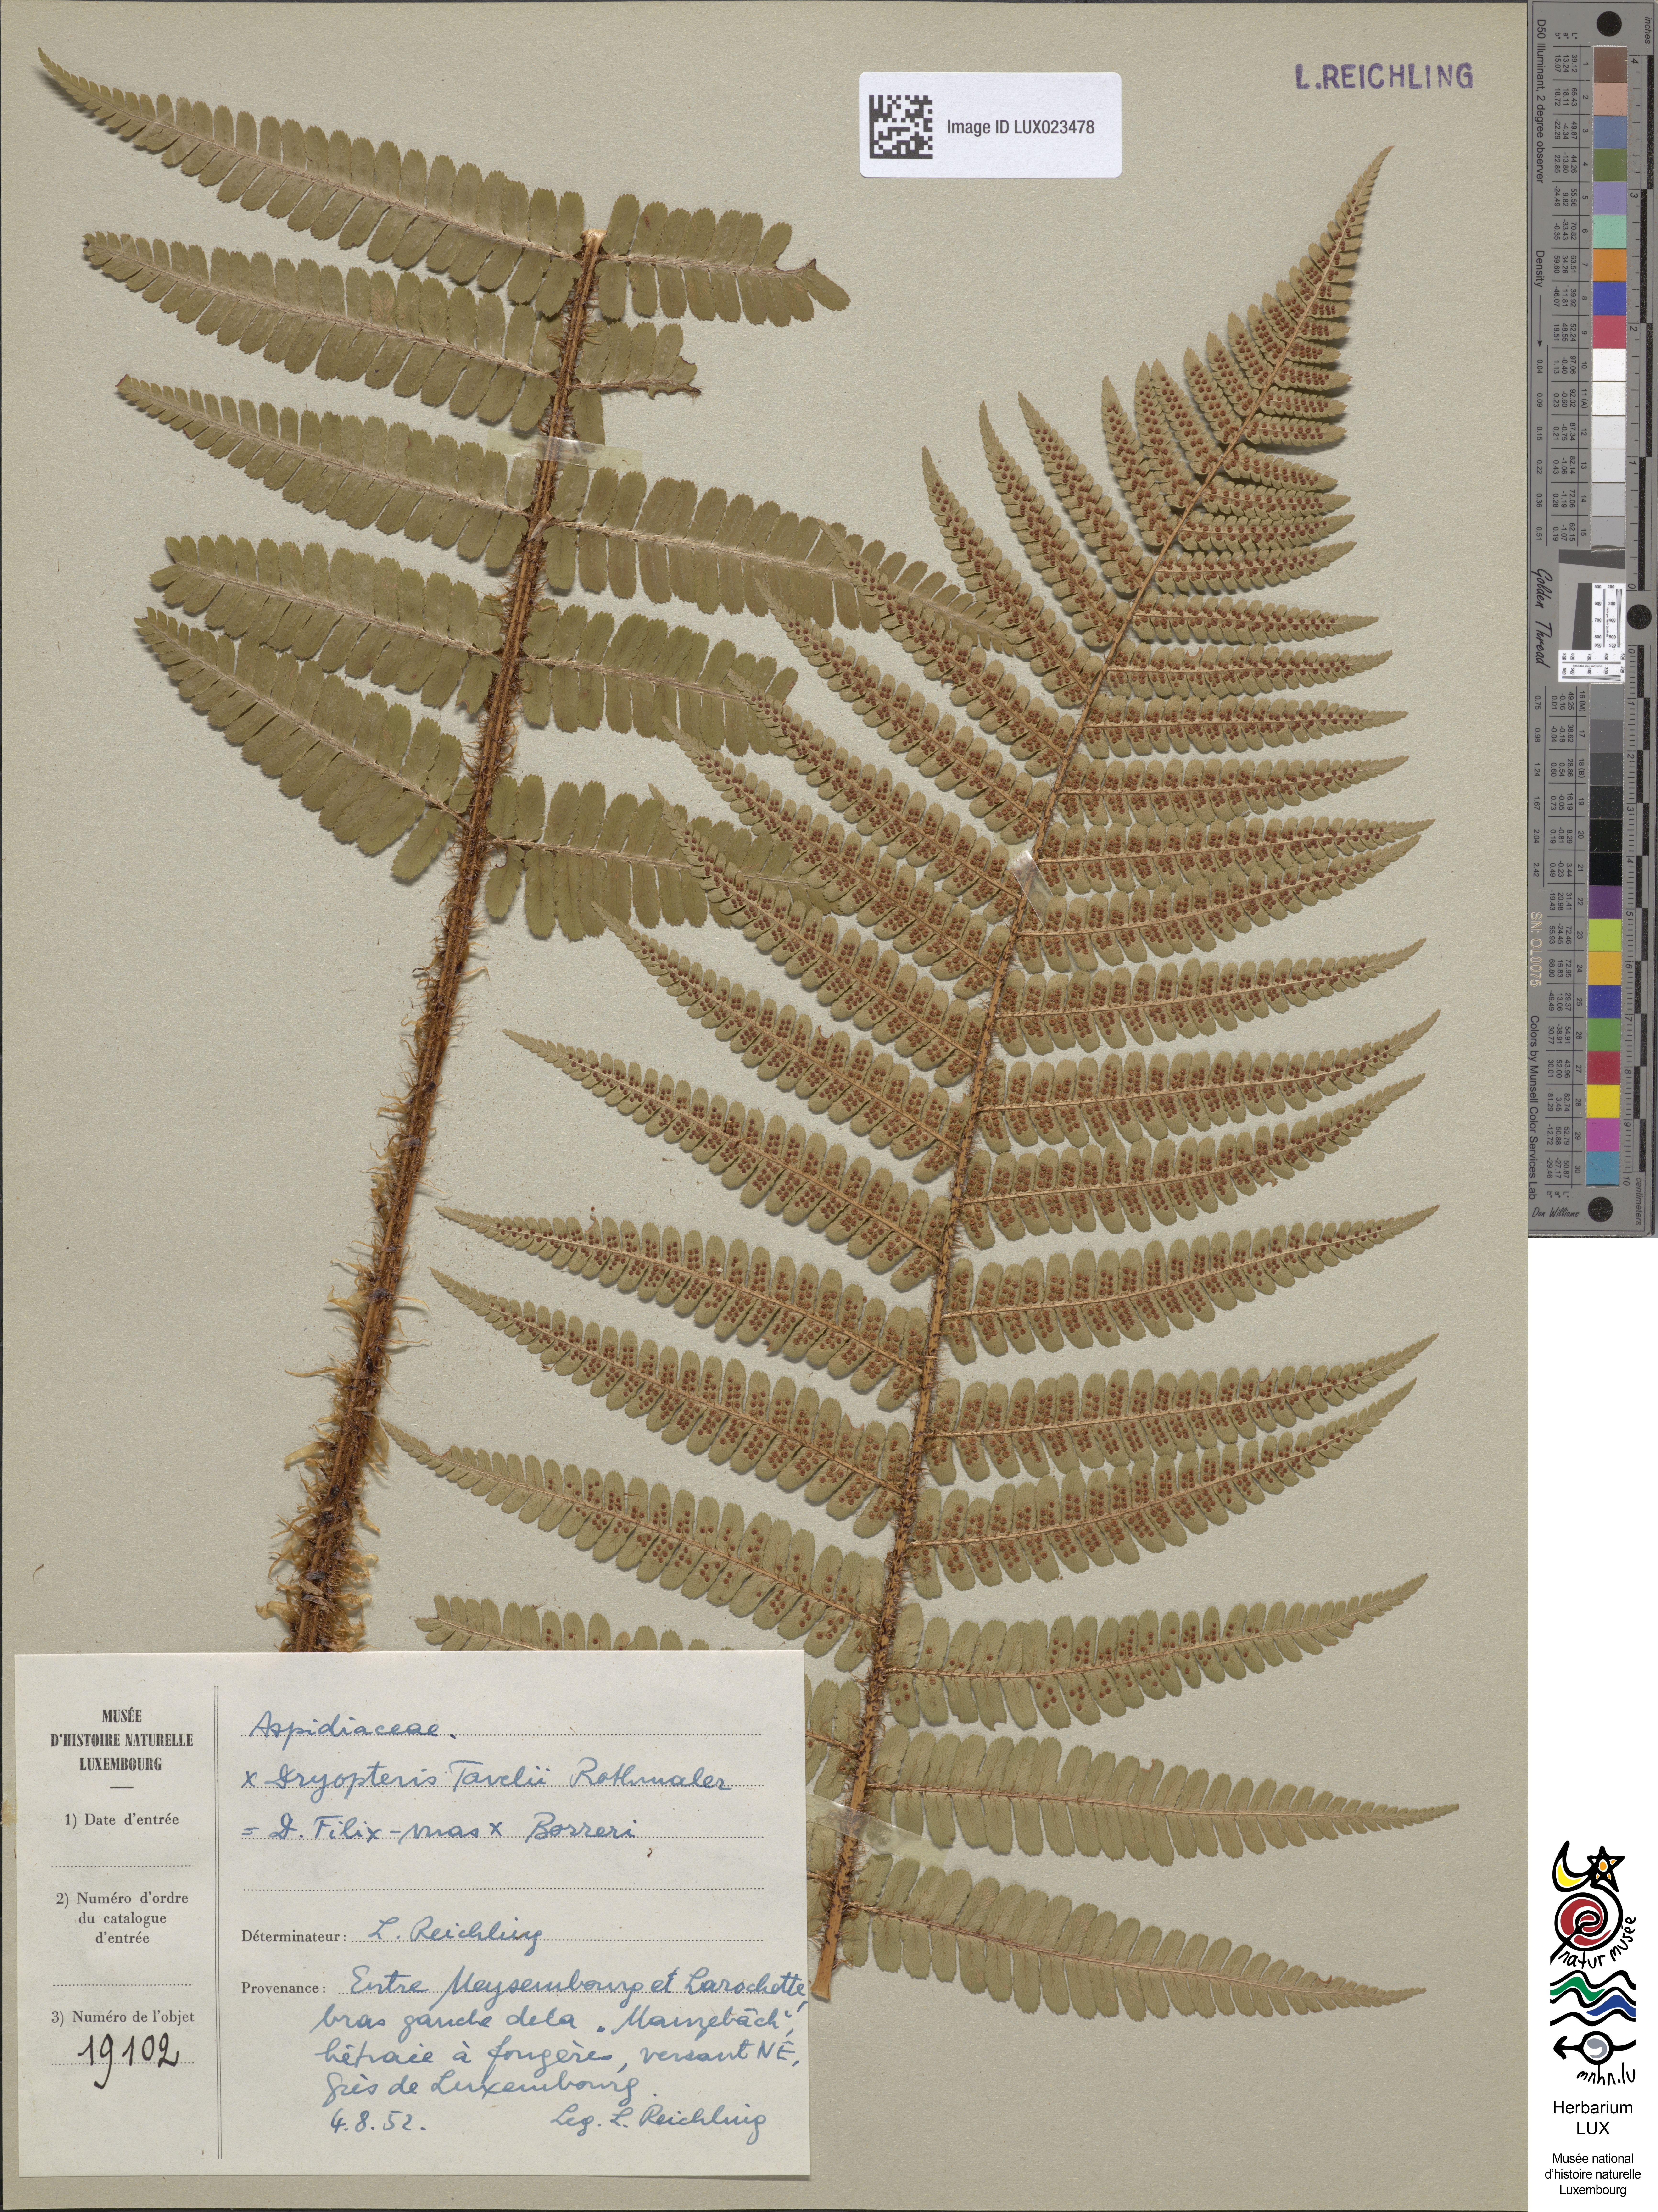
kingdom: Plantae
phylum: Tracheophyta
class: Polypodiopsida
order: Polypodiales
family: Dryopteridaceae
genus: Dryopteris
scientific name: Dryopteris borreri
